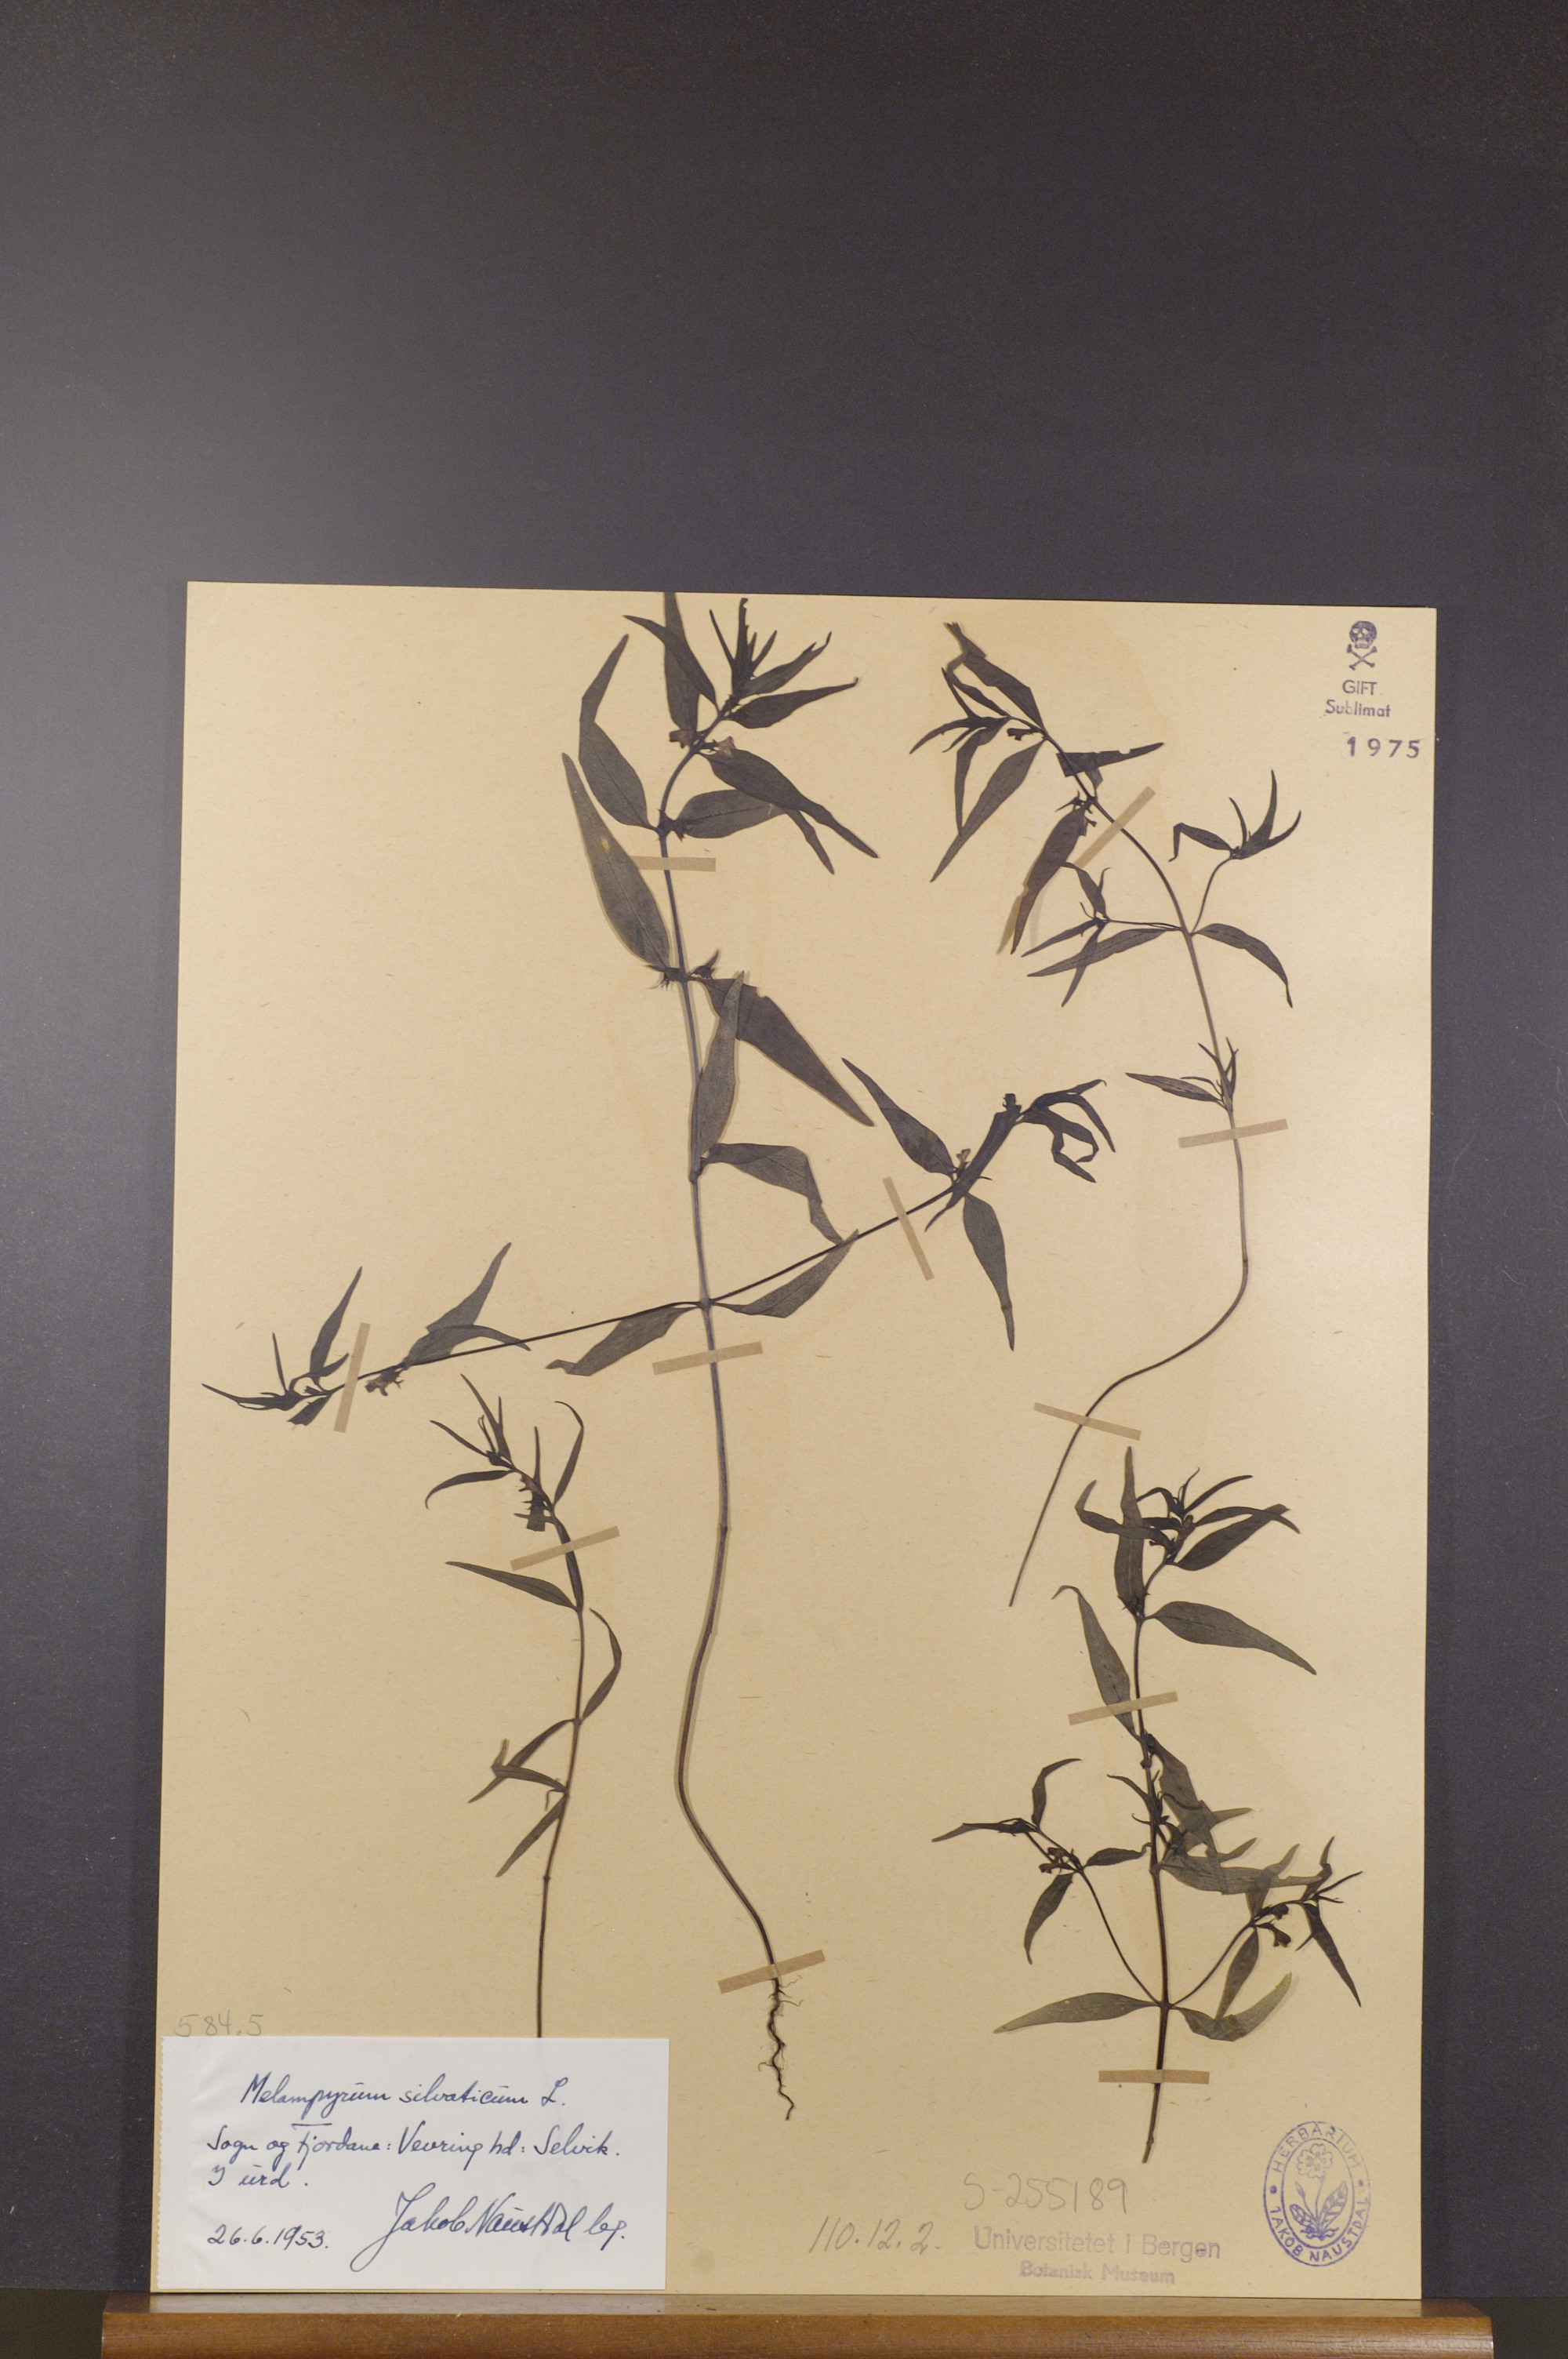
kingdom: Plantae
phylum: Tracheophyta
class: Magnoliopsida
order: Lamiales
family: Orobanchaceae
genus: Melampyrum
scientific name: Melampyrum sylvaticum
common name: Small cow-wheat
